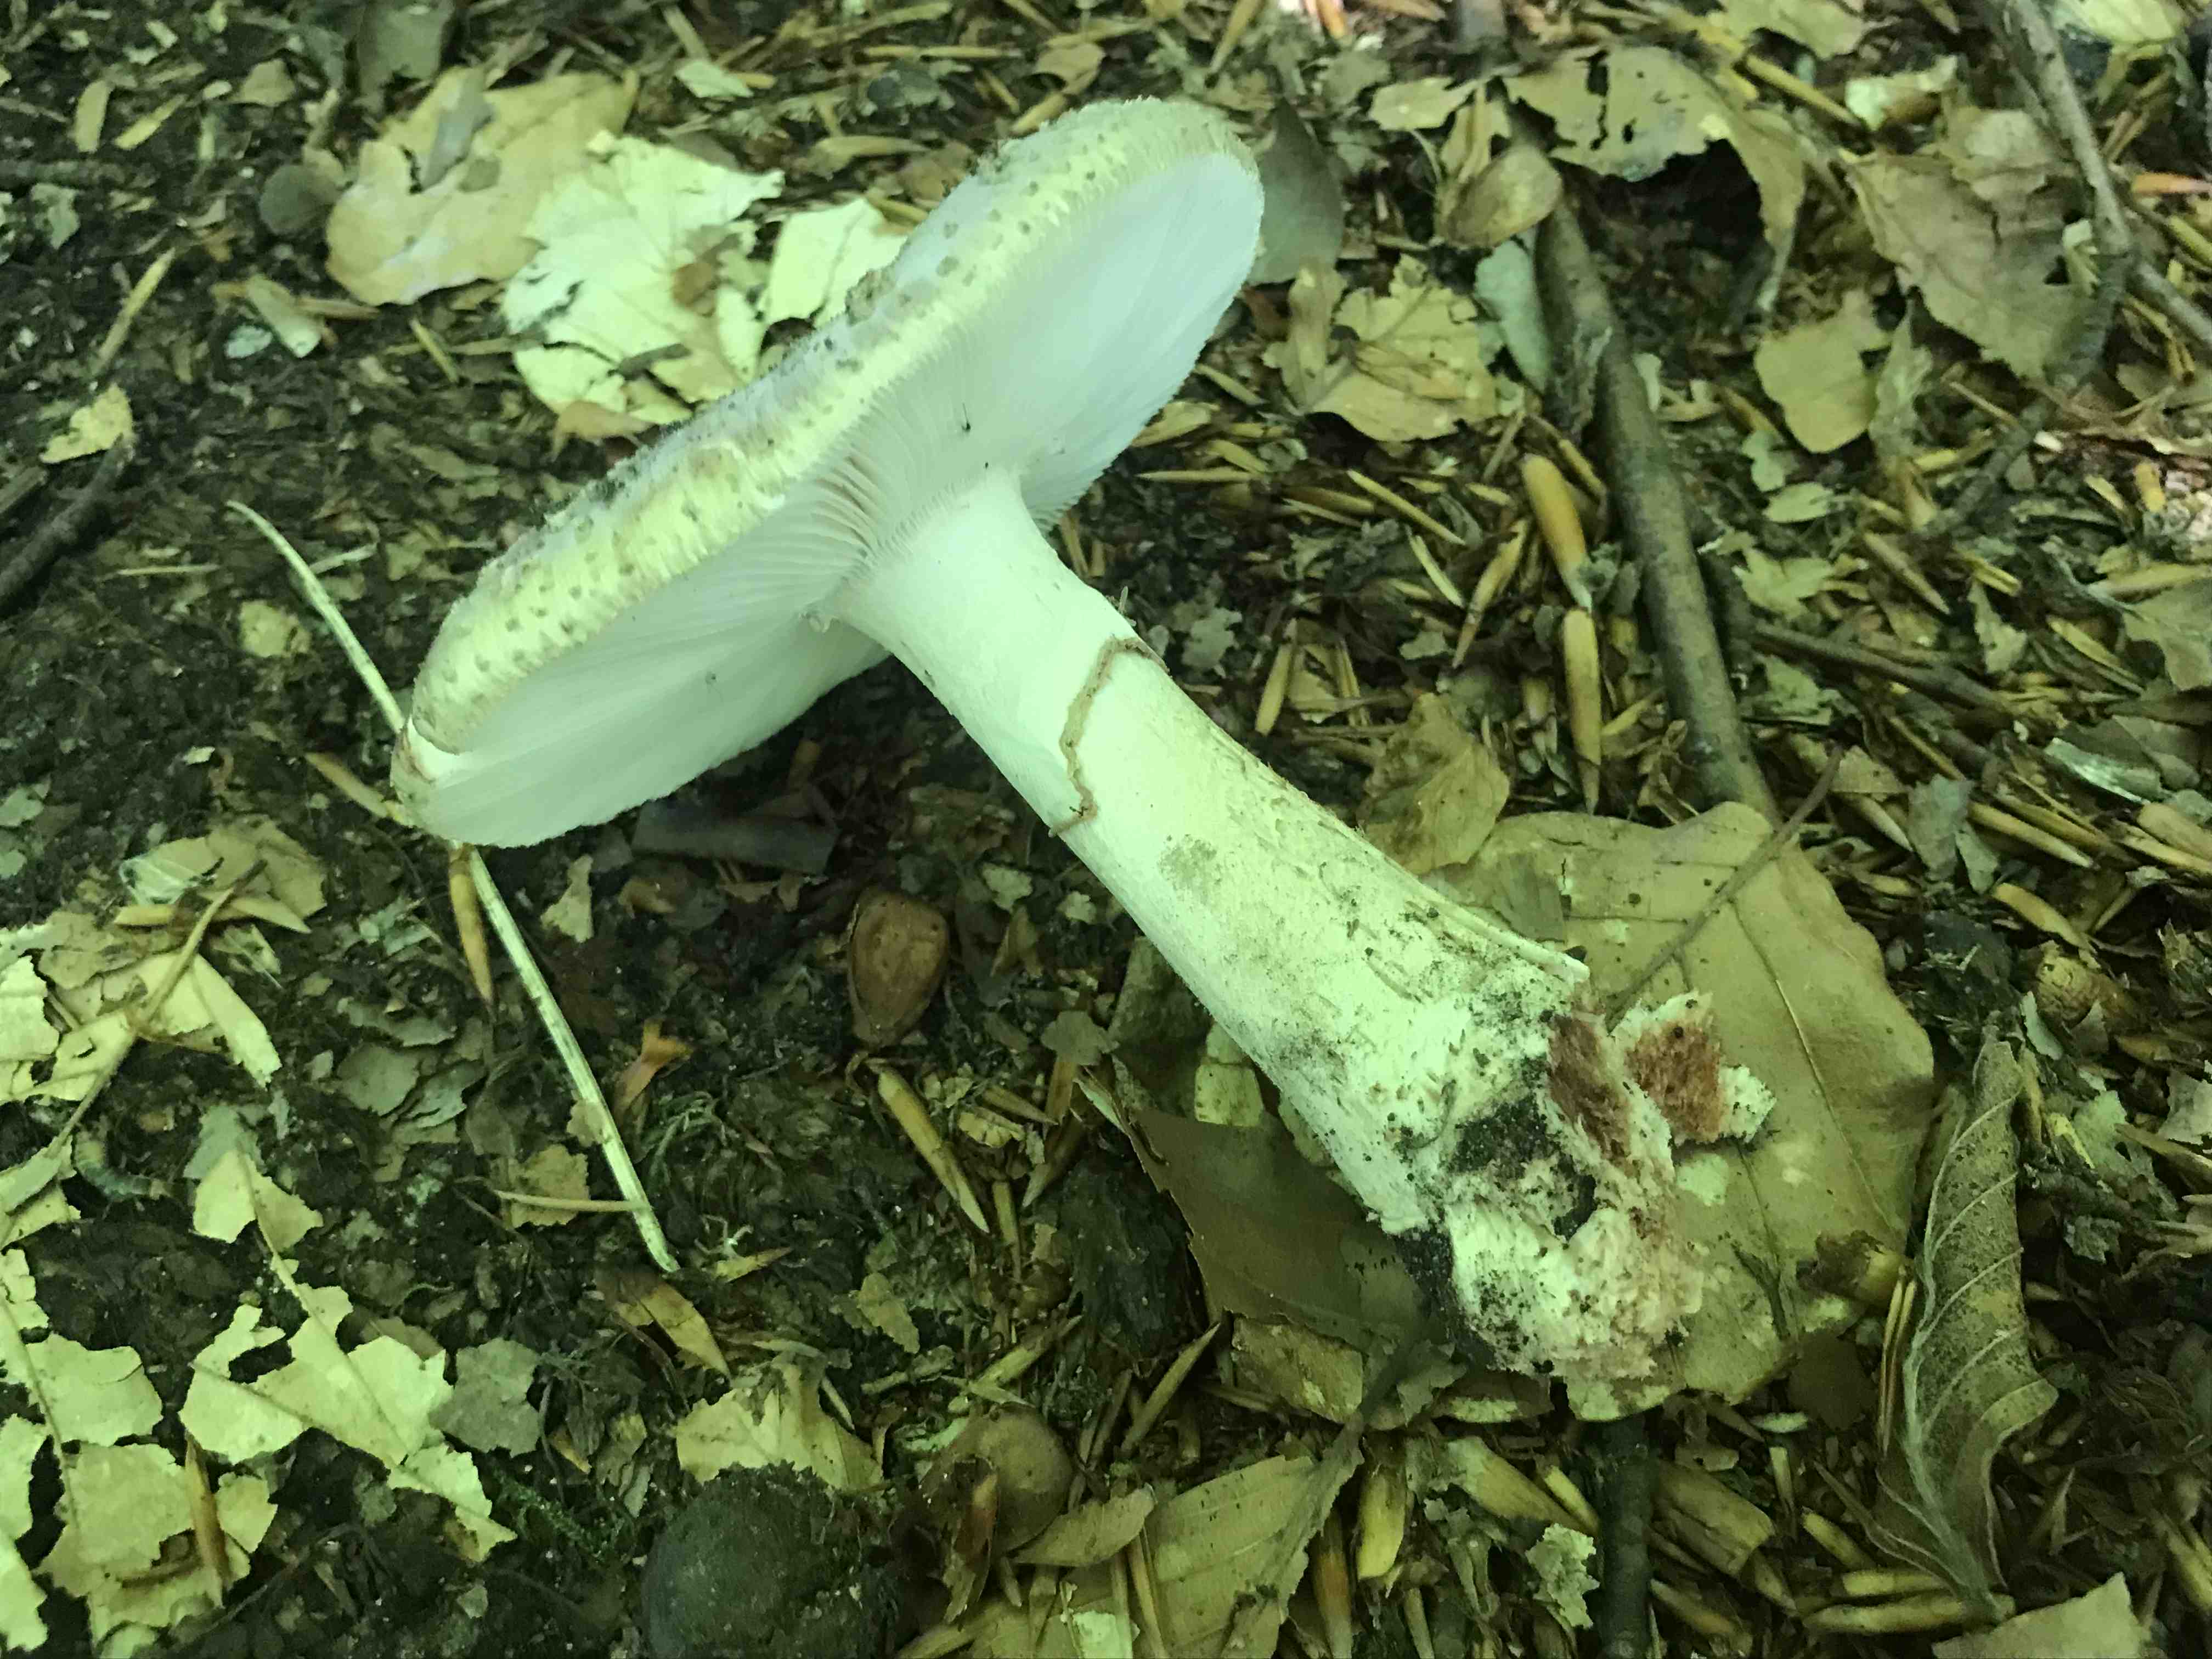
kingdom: Fungi
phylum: Basidiomycota
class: Agaricomycetes
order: Agaricales
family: Amanitaceae
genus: Amanita
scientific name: Amanita rubescens
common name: rødmende fluesvamp
